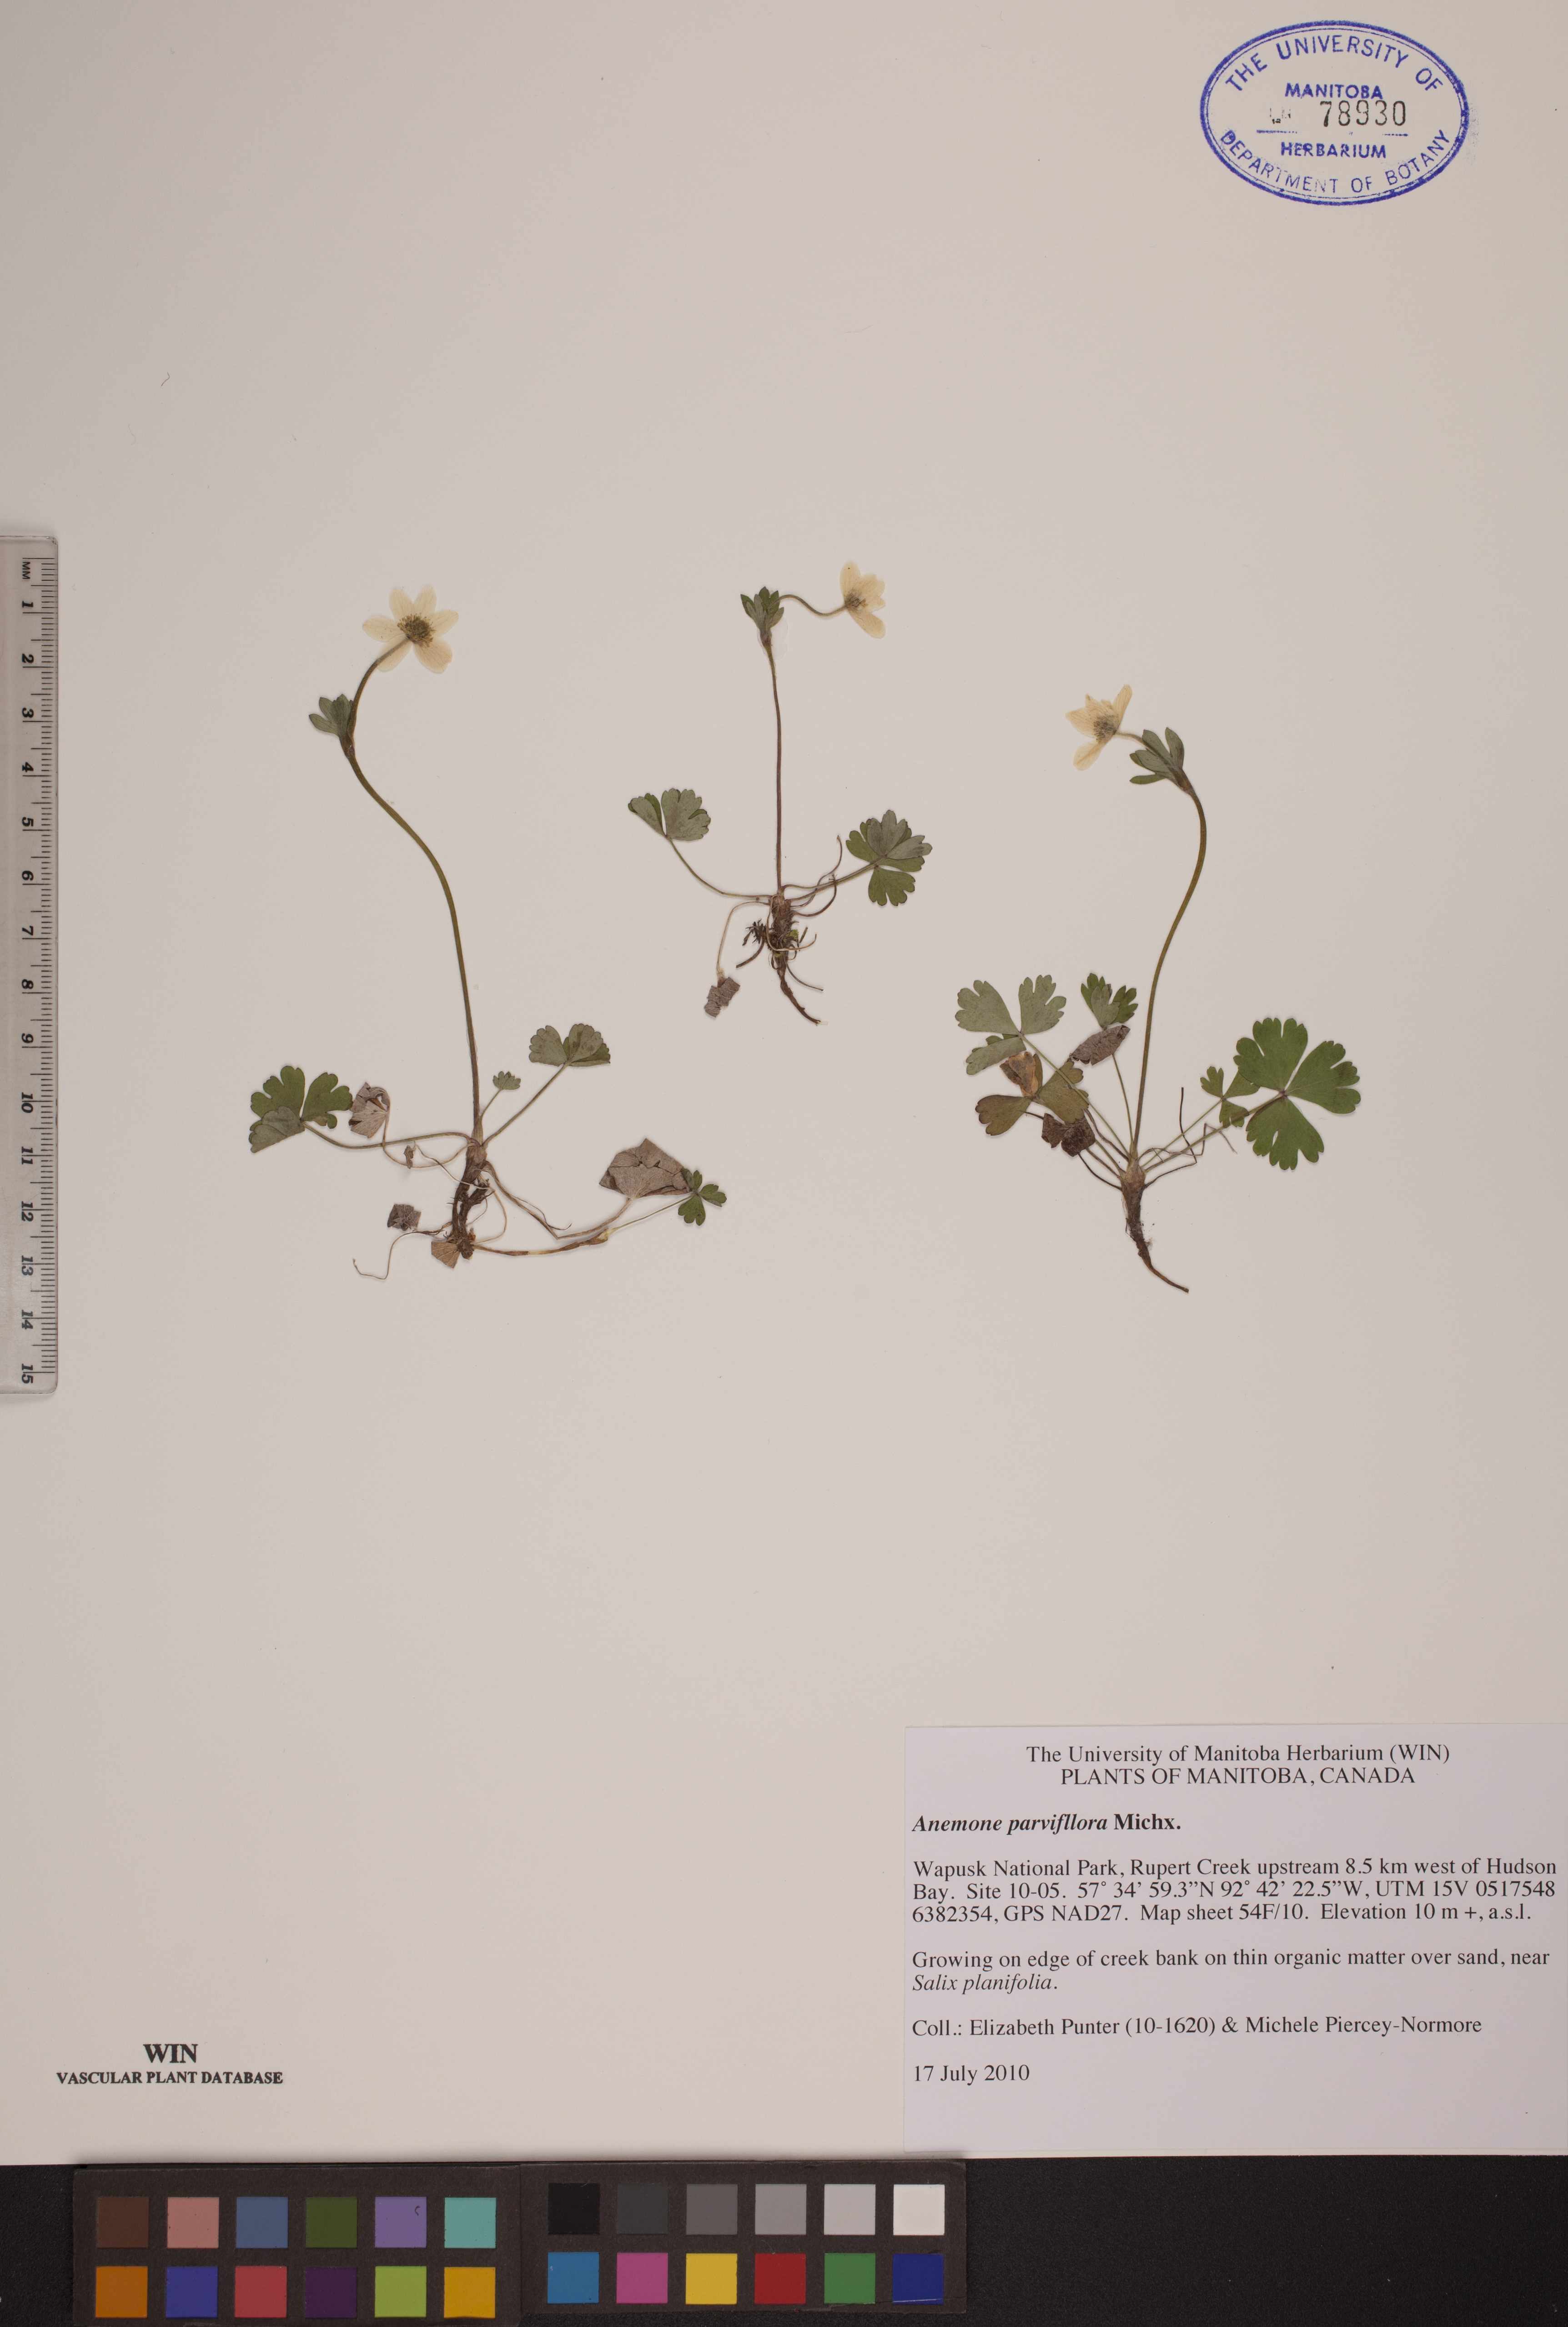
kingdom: Plantae
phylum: Tracheophyta
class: Magnoliopsida
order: Ranunculales
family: Ranunculaceae
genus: Anemone
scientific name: Anemone parviflora
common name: Northern anemone
